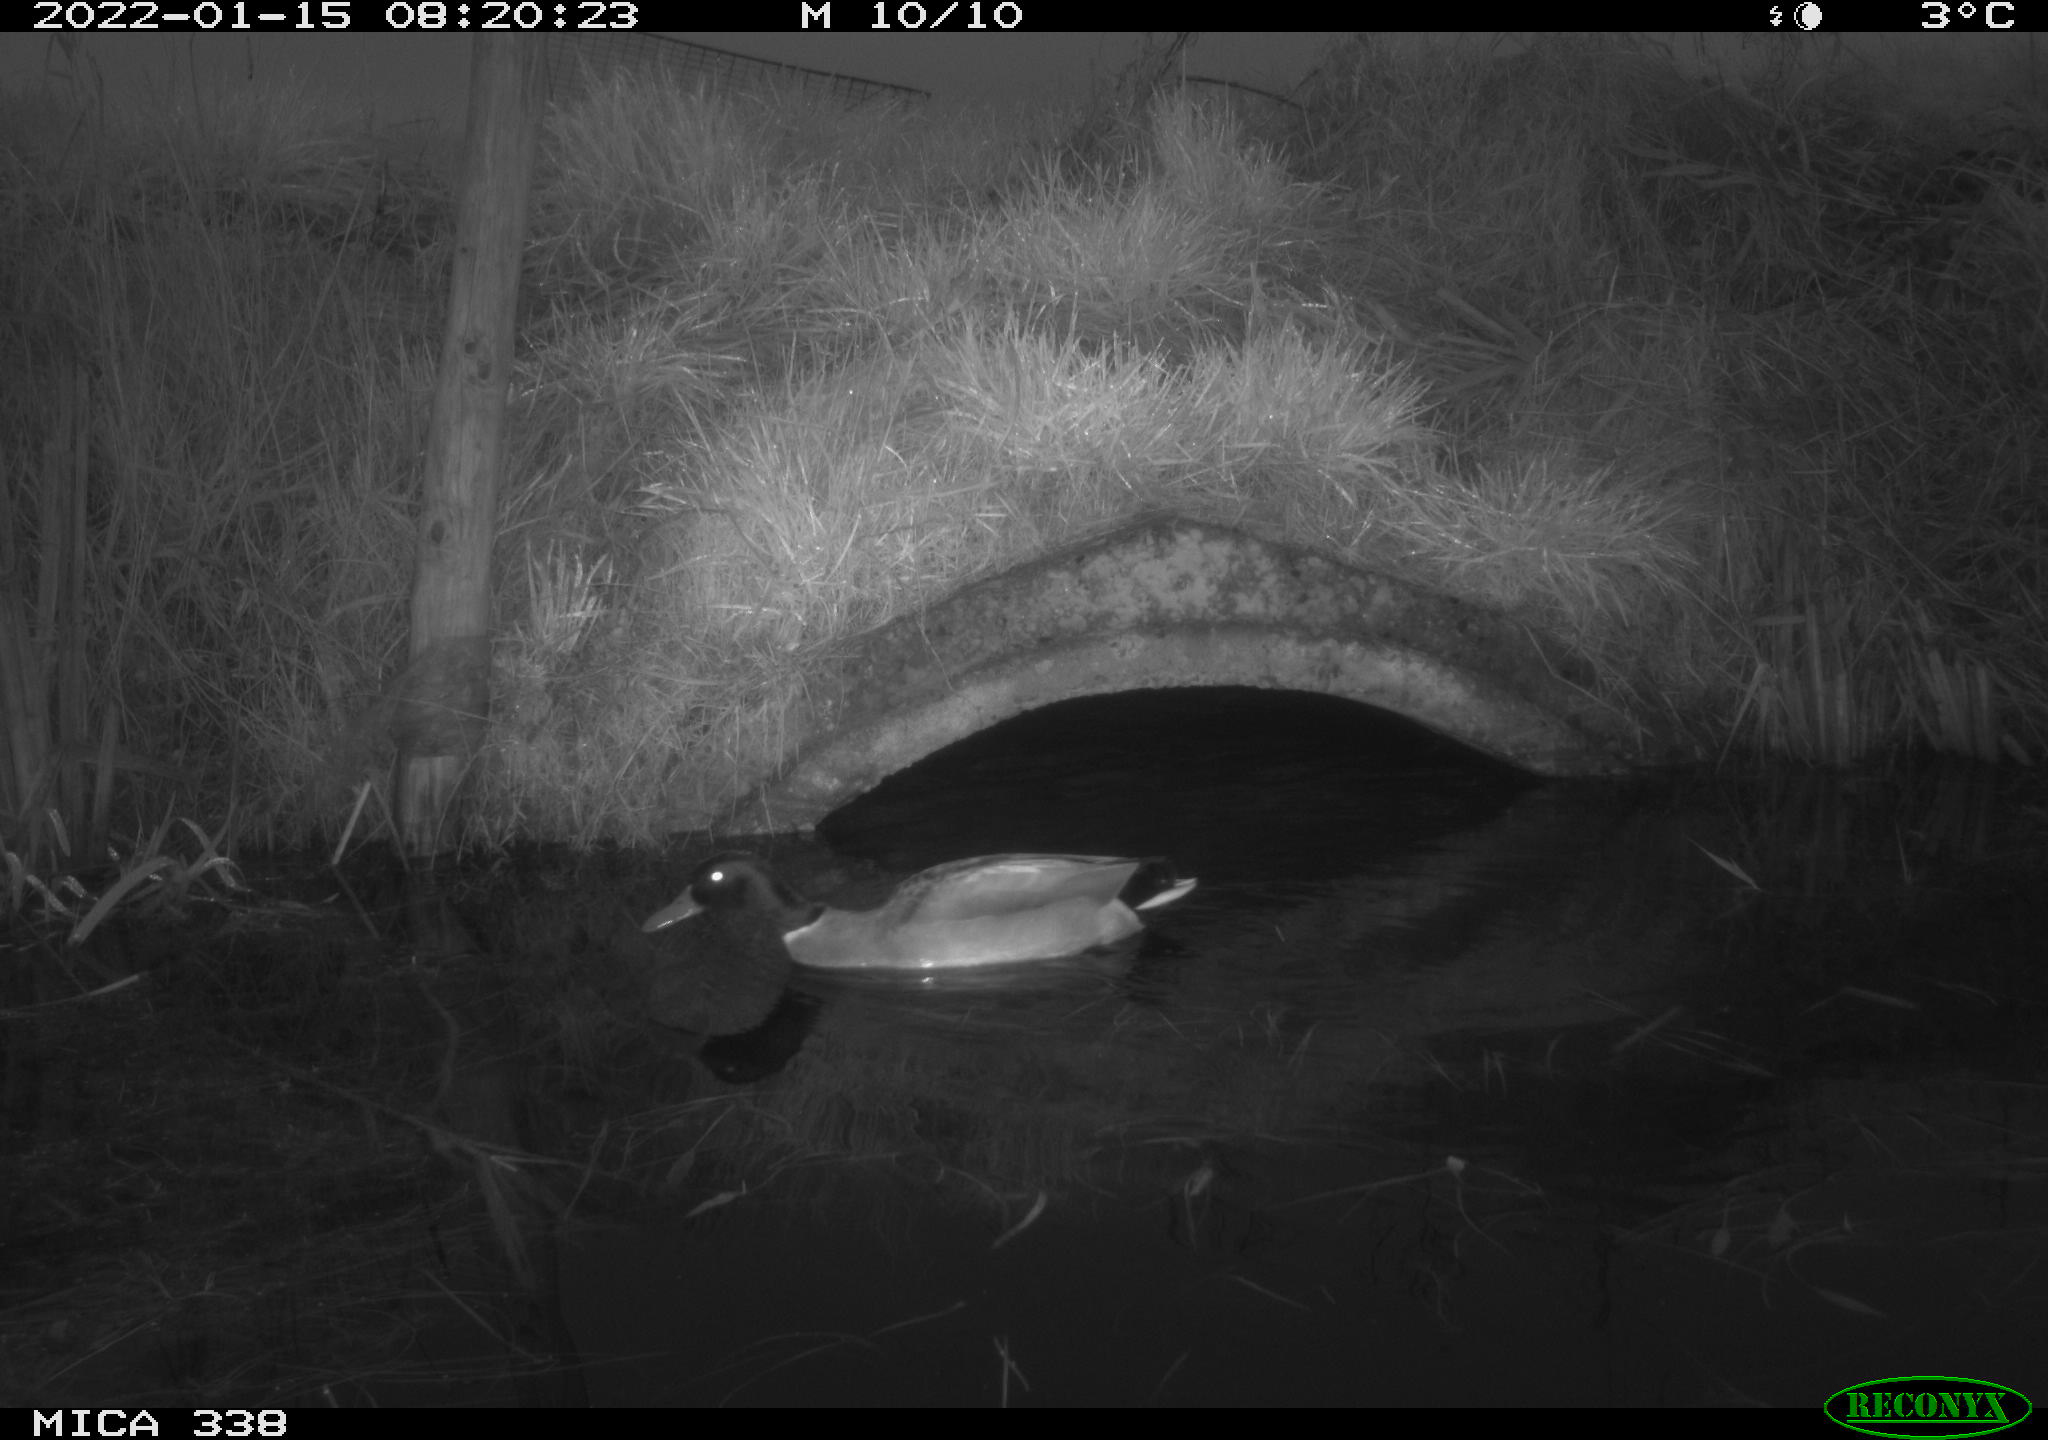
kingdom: Animalia
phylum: Chordata
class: Aves
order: Anseriformes
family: Anatidae
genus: Anas
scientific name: Anas platyrhynchos
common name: Mallard
